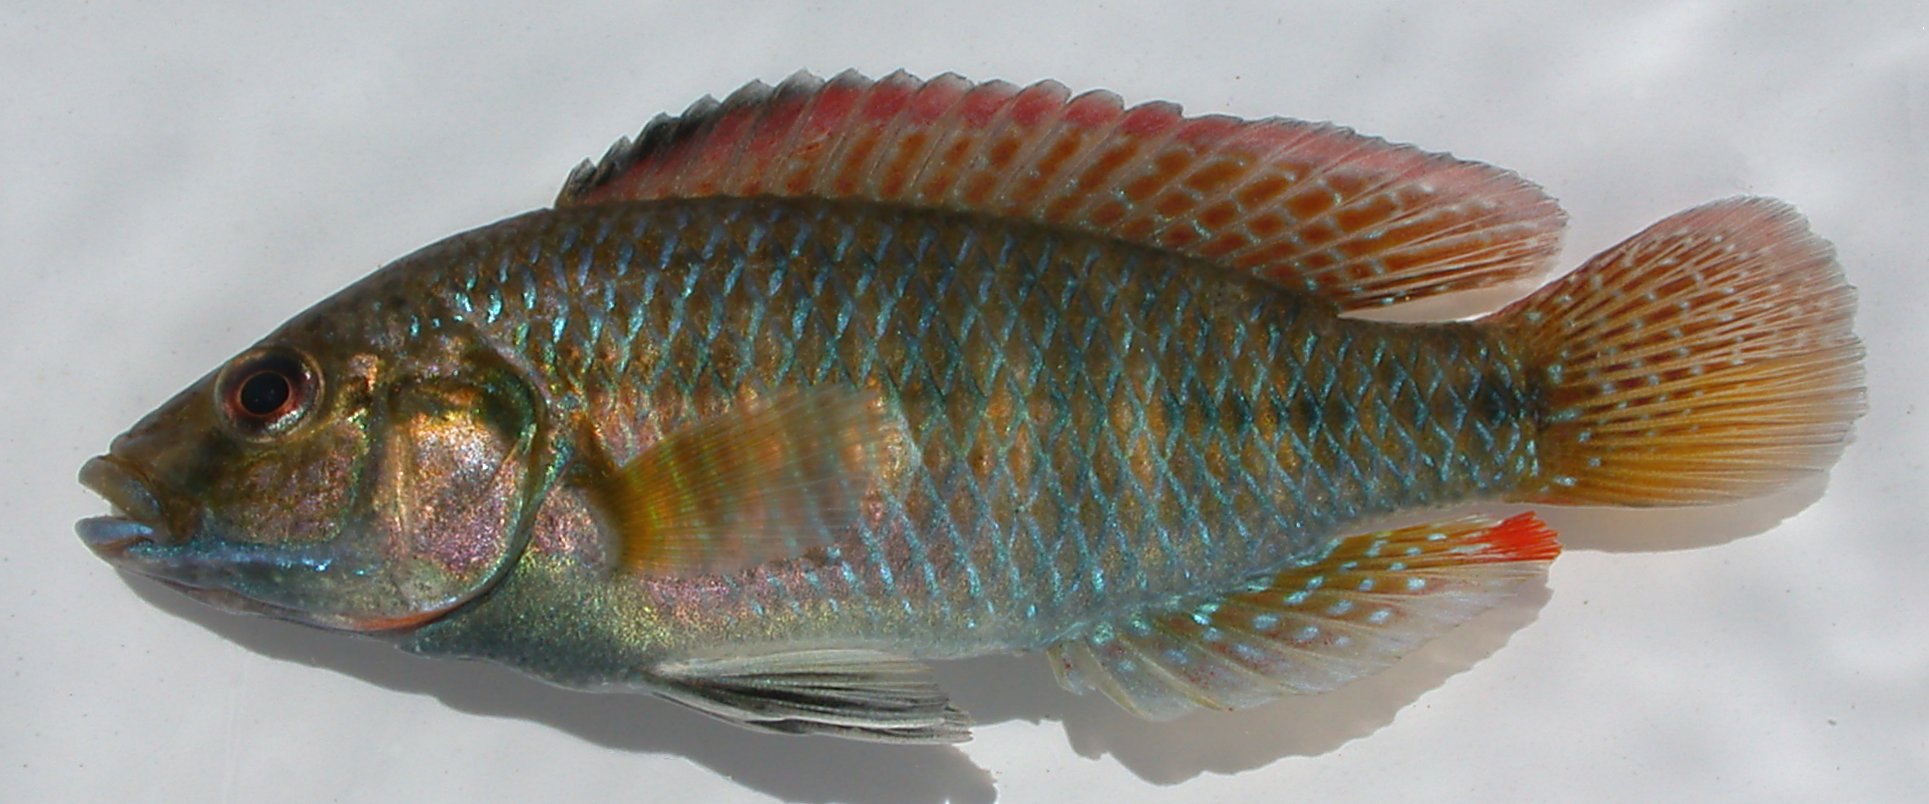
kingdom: Animalia
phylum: Chordata
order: Perciformes
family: Cichlidae
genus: Pseudocrenilabrus
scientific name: Pseudocrenilabrus philander
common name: Southern mouthbrooder
